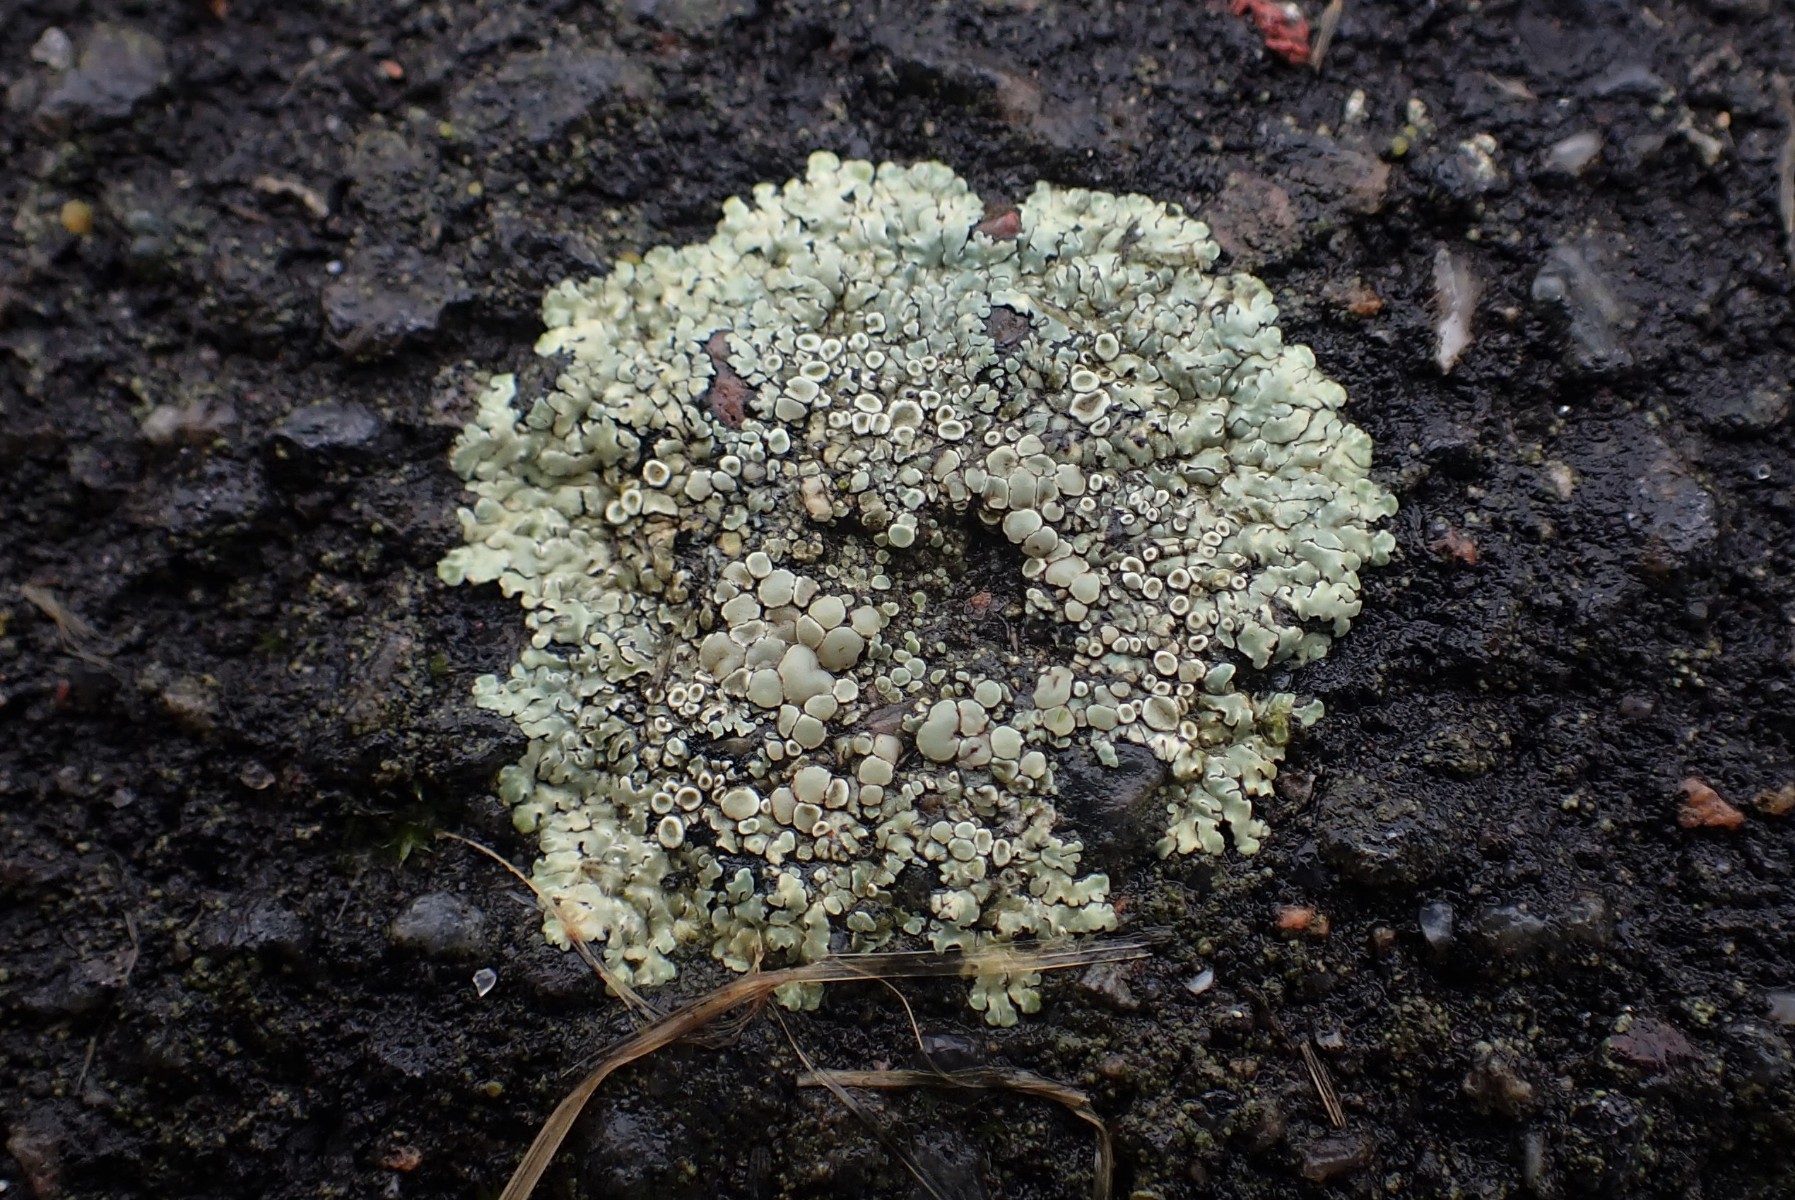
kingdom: Fungi
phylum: Ascomycota
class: Lecanoromycetes
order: Lecanorales
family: Lecanoraceae
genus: Protoparmeliopsis
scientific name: Protoparmeliopsis muralis
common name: randfliget kantskivelav
